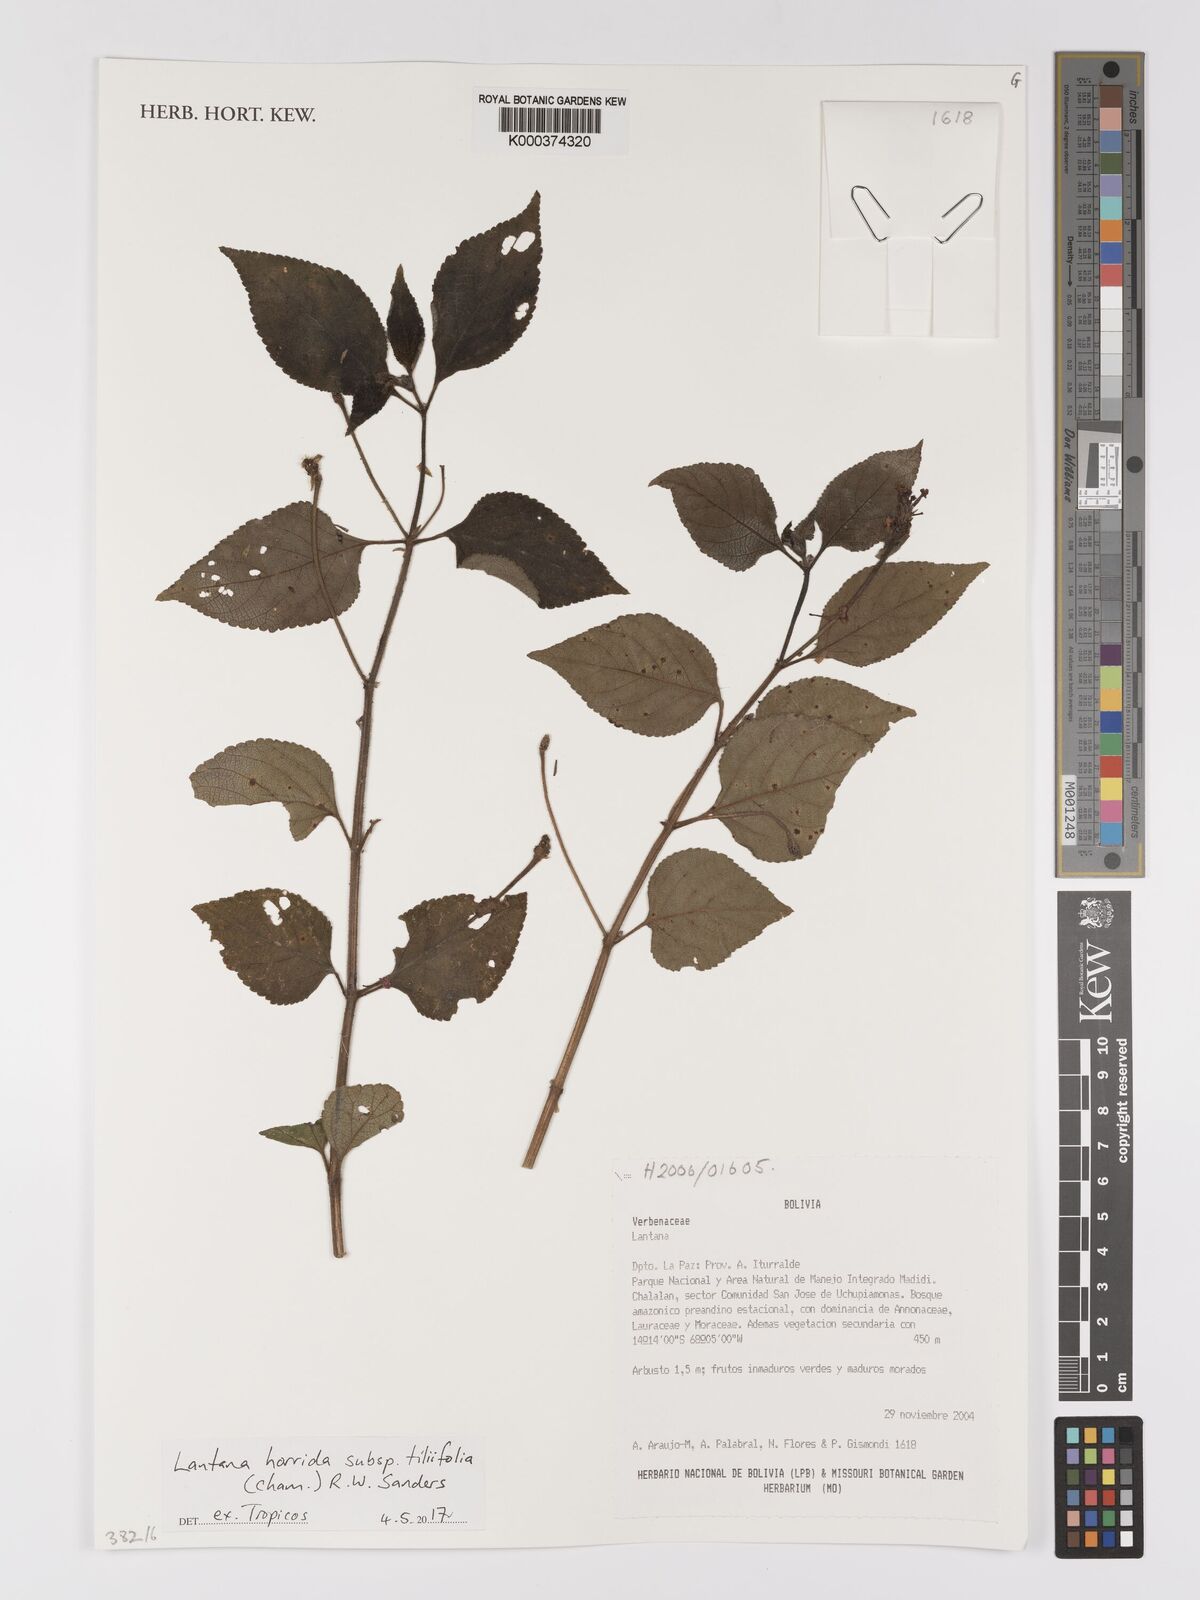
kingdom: Plantae
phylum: Tracheophyta
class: Magnoliopsida
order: Lamiales
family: Verbenaceae
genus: Lantana
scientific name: Lantana horrida
